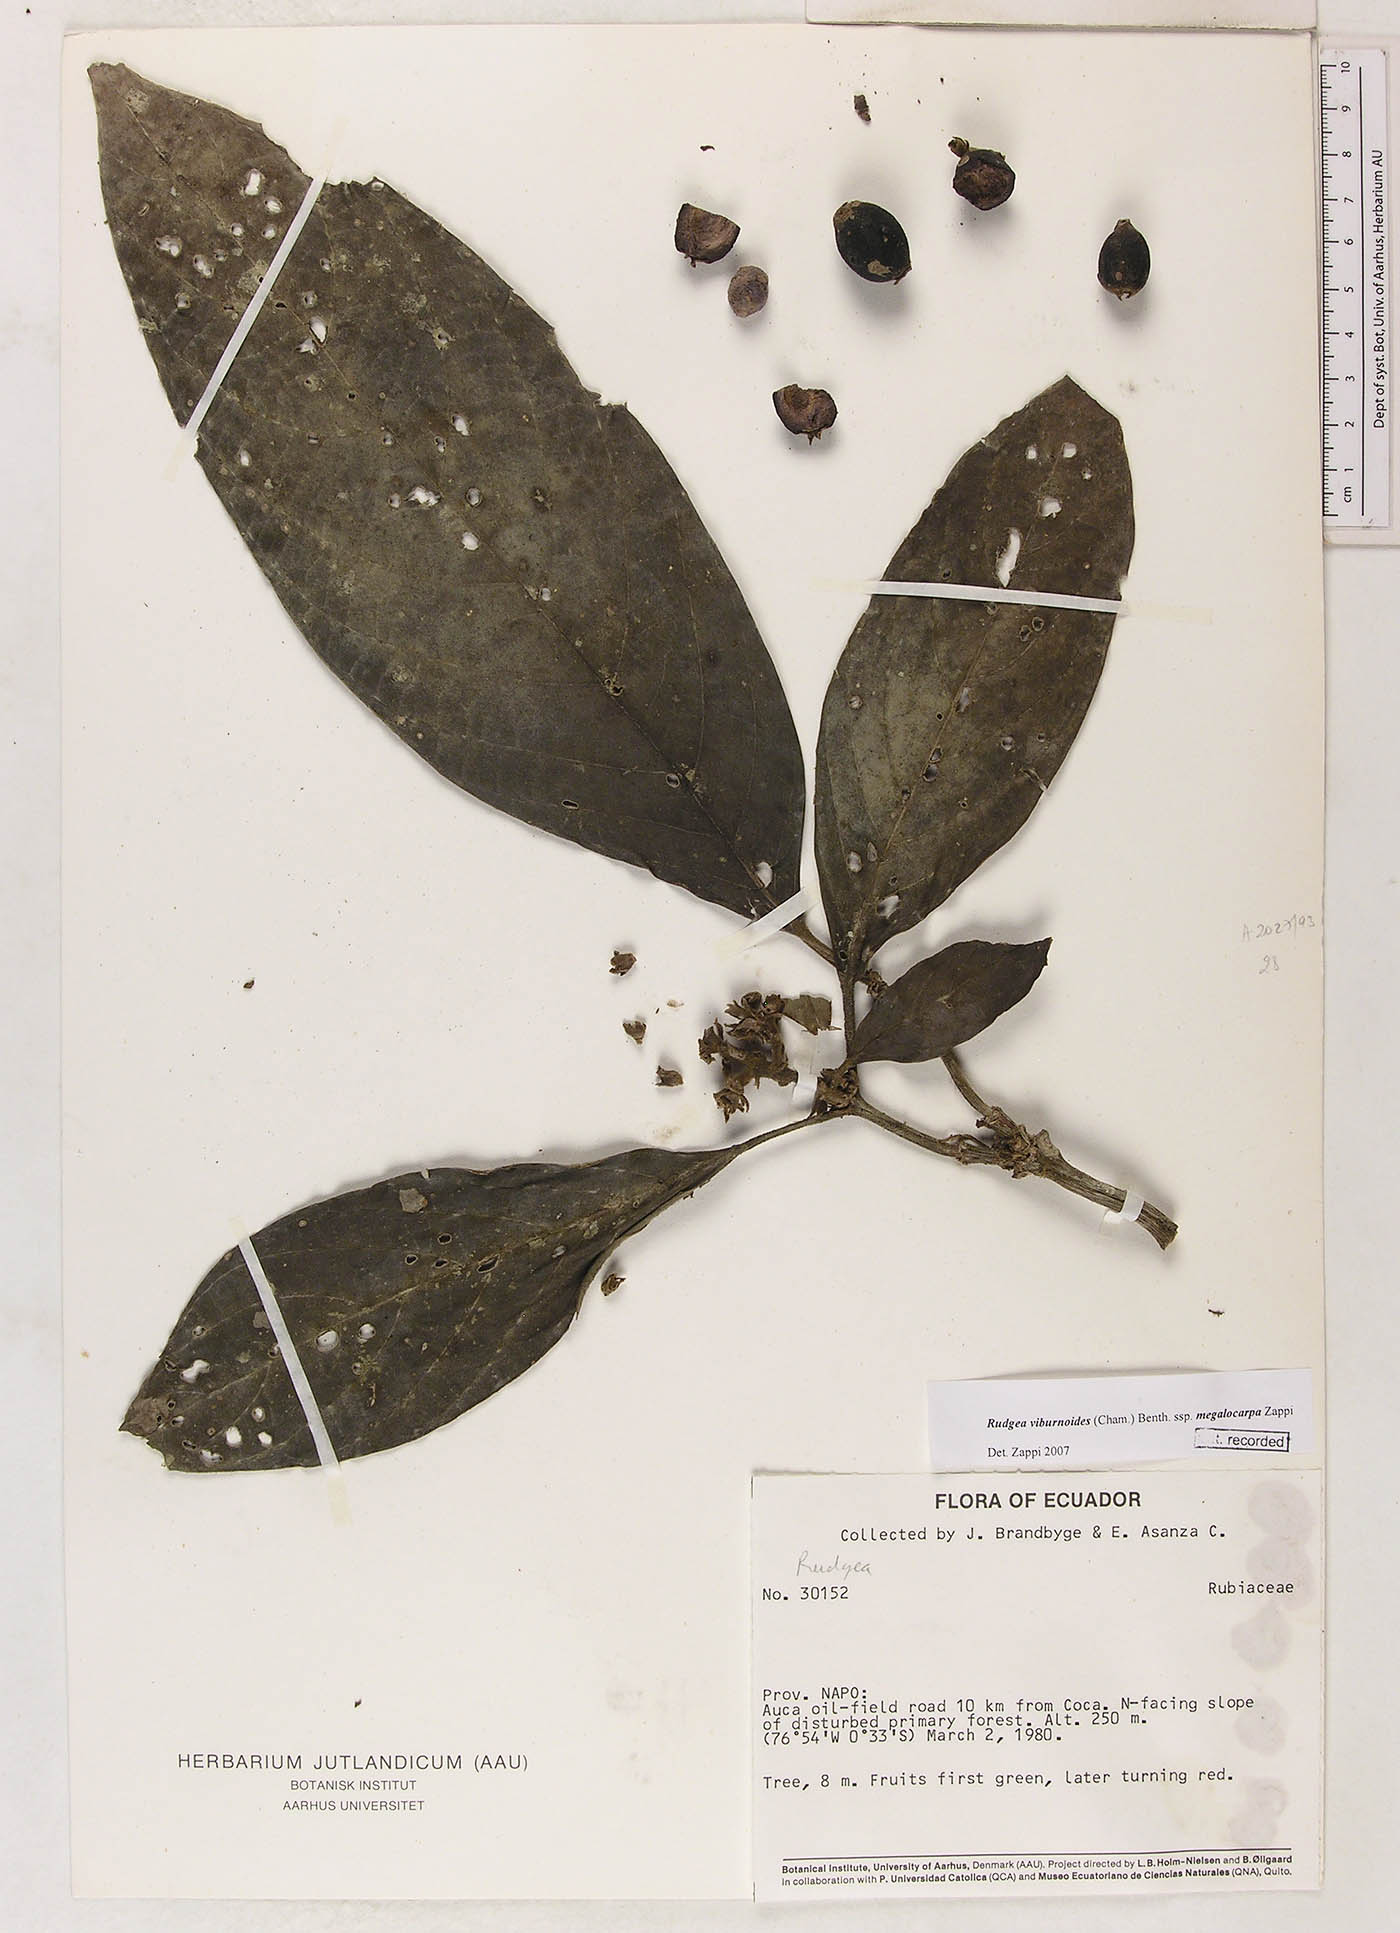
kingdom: Plantae
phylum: Tracheophyta
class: Magnoliopsida
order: Gentianales
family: Rubiaceae
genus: Rudgea
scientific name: Rudgea viburnoides
